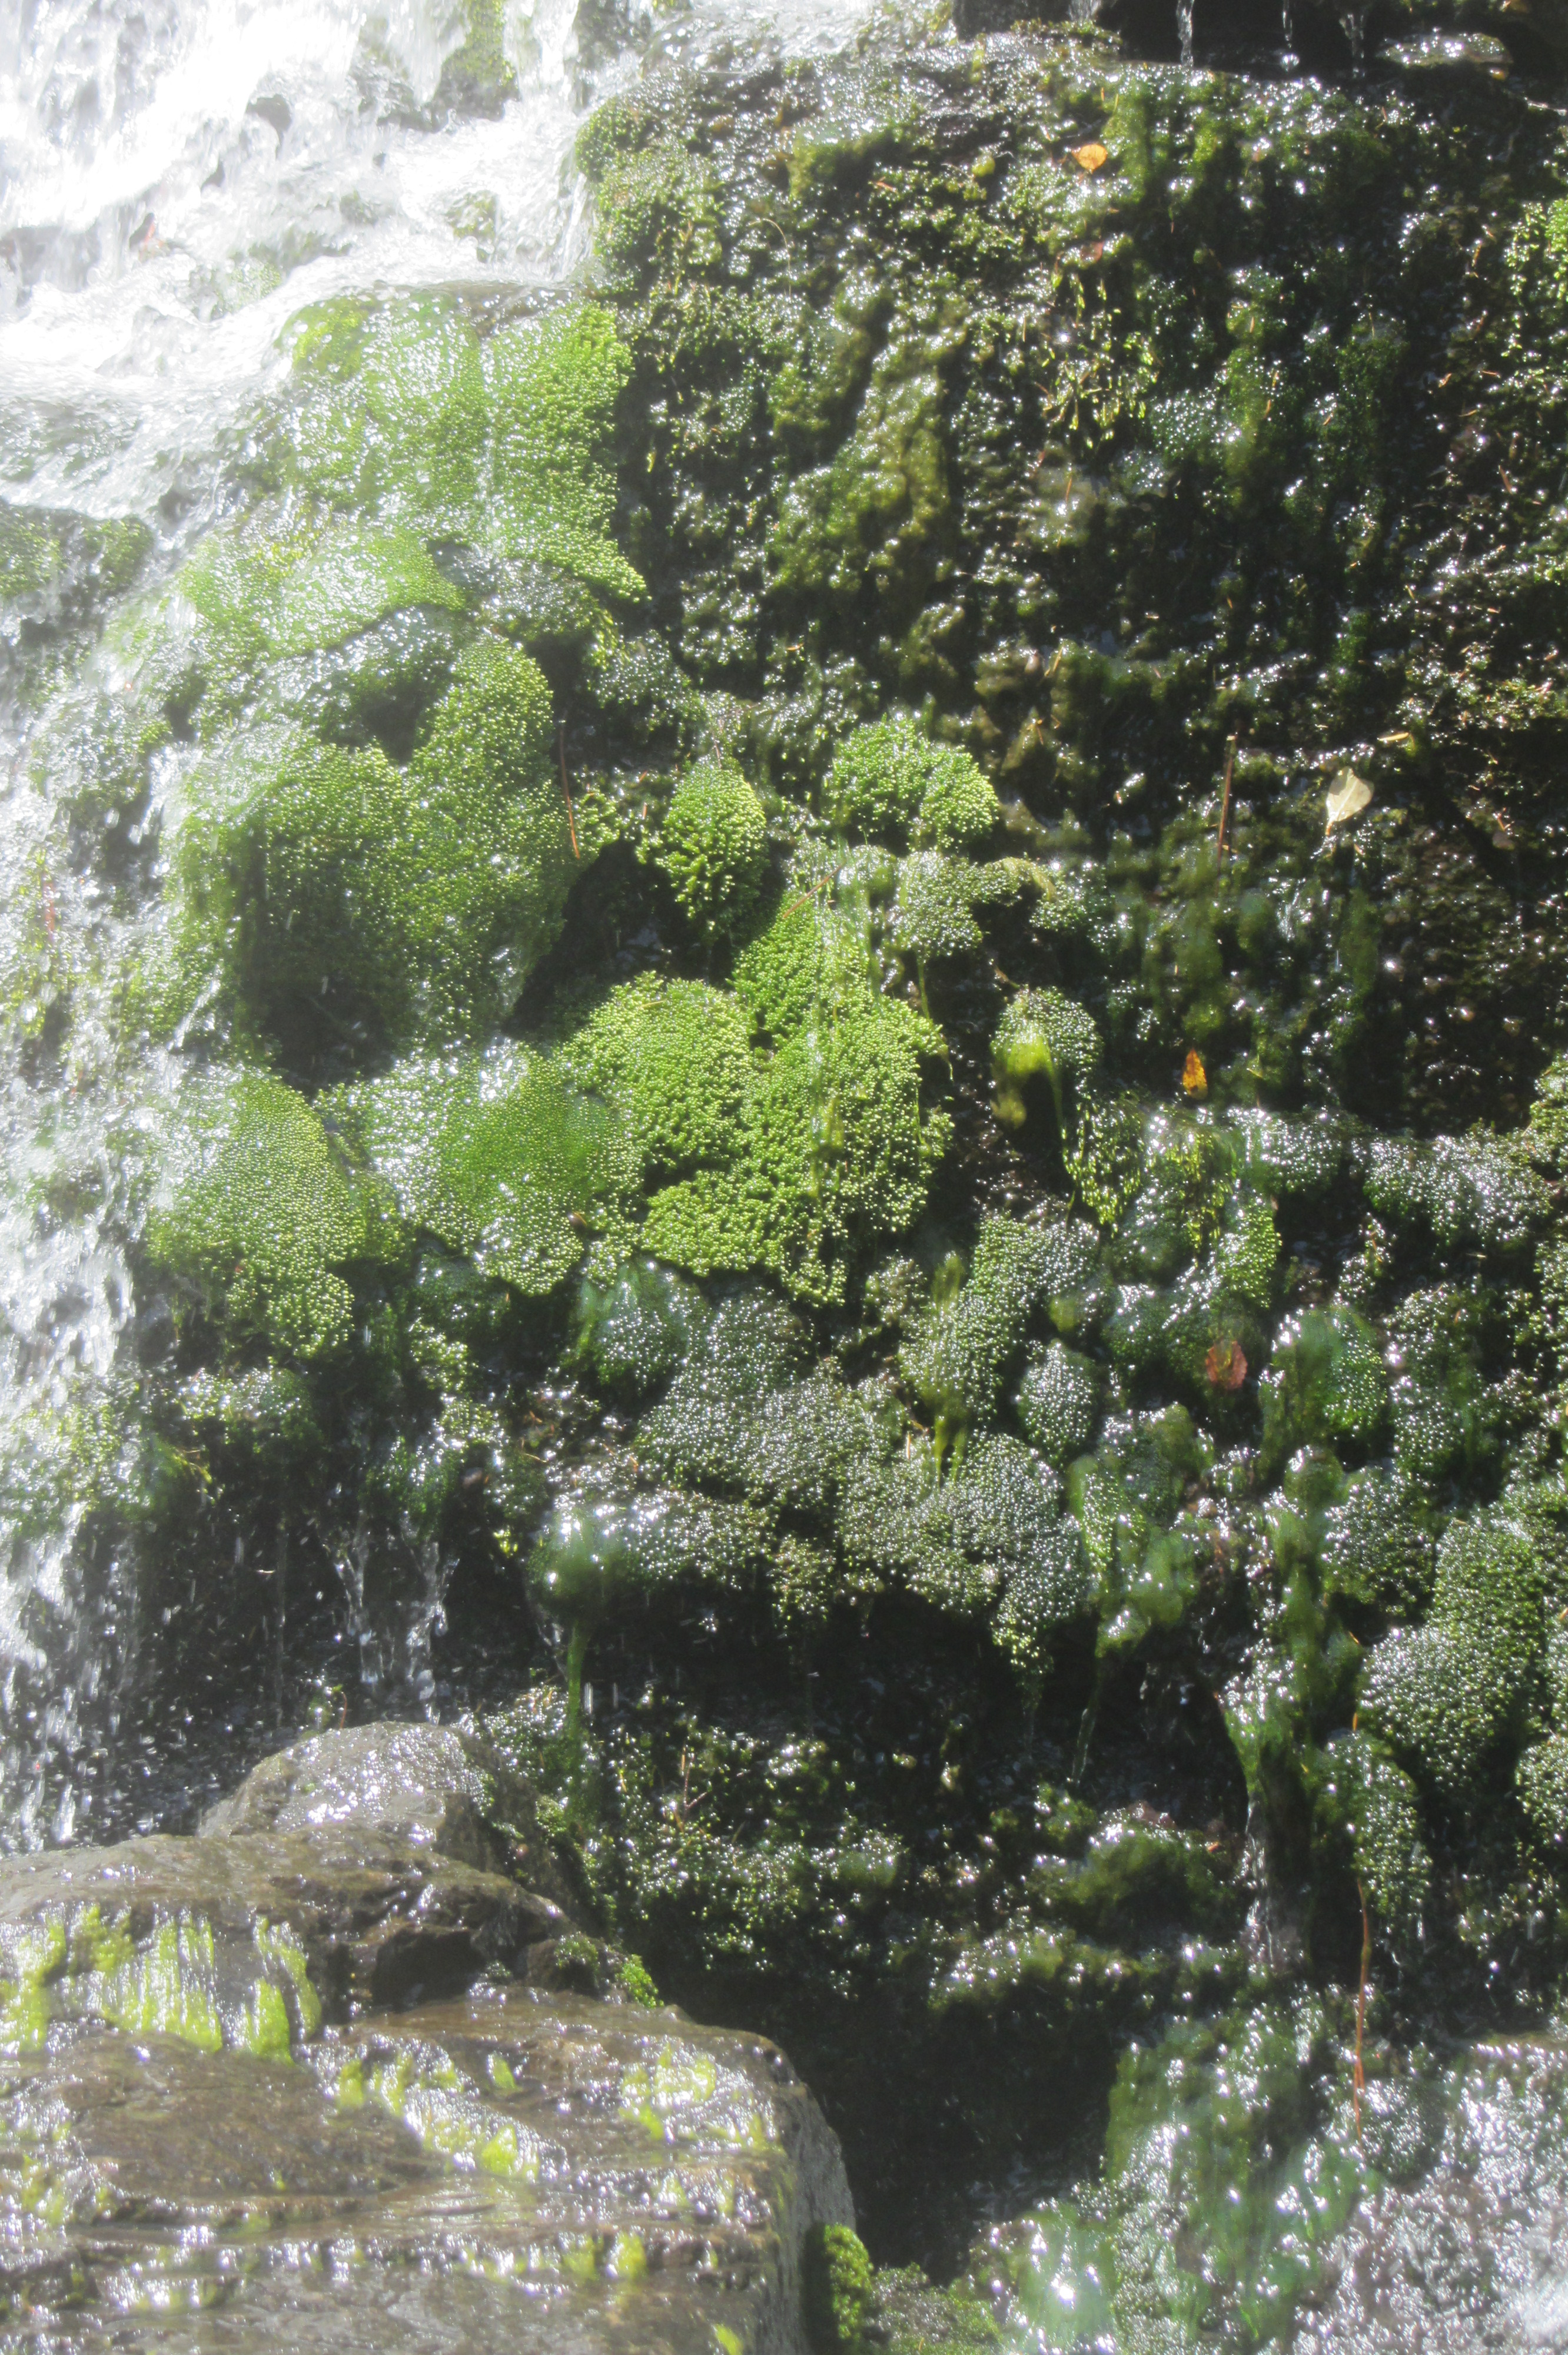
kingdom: Plantae
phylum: Bryophyta
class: Bryopsida
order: Bryales
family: Bryaceae
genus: Ochiobryum
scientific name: Ochiobryum blandum
